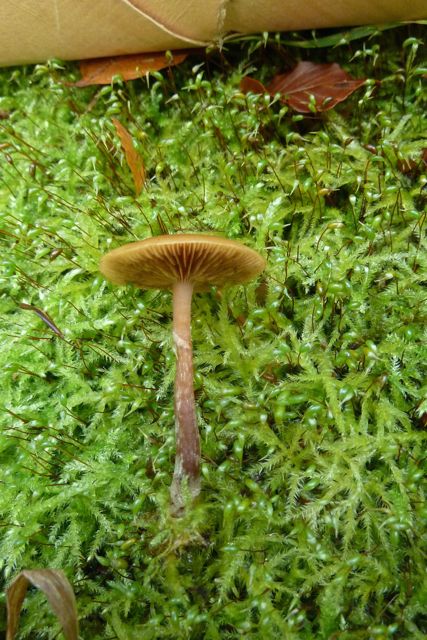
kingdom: Fungi
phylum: Basidiomycota
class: Agaricomycetes
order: Agaricales
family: Hymenogastraceae
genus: Galerina
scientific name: Galerina marginata
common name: randbæltet hjelmhat
